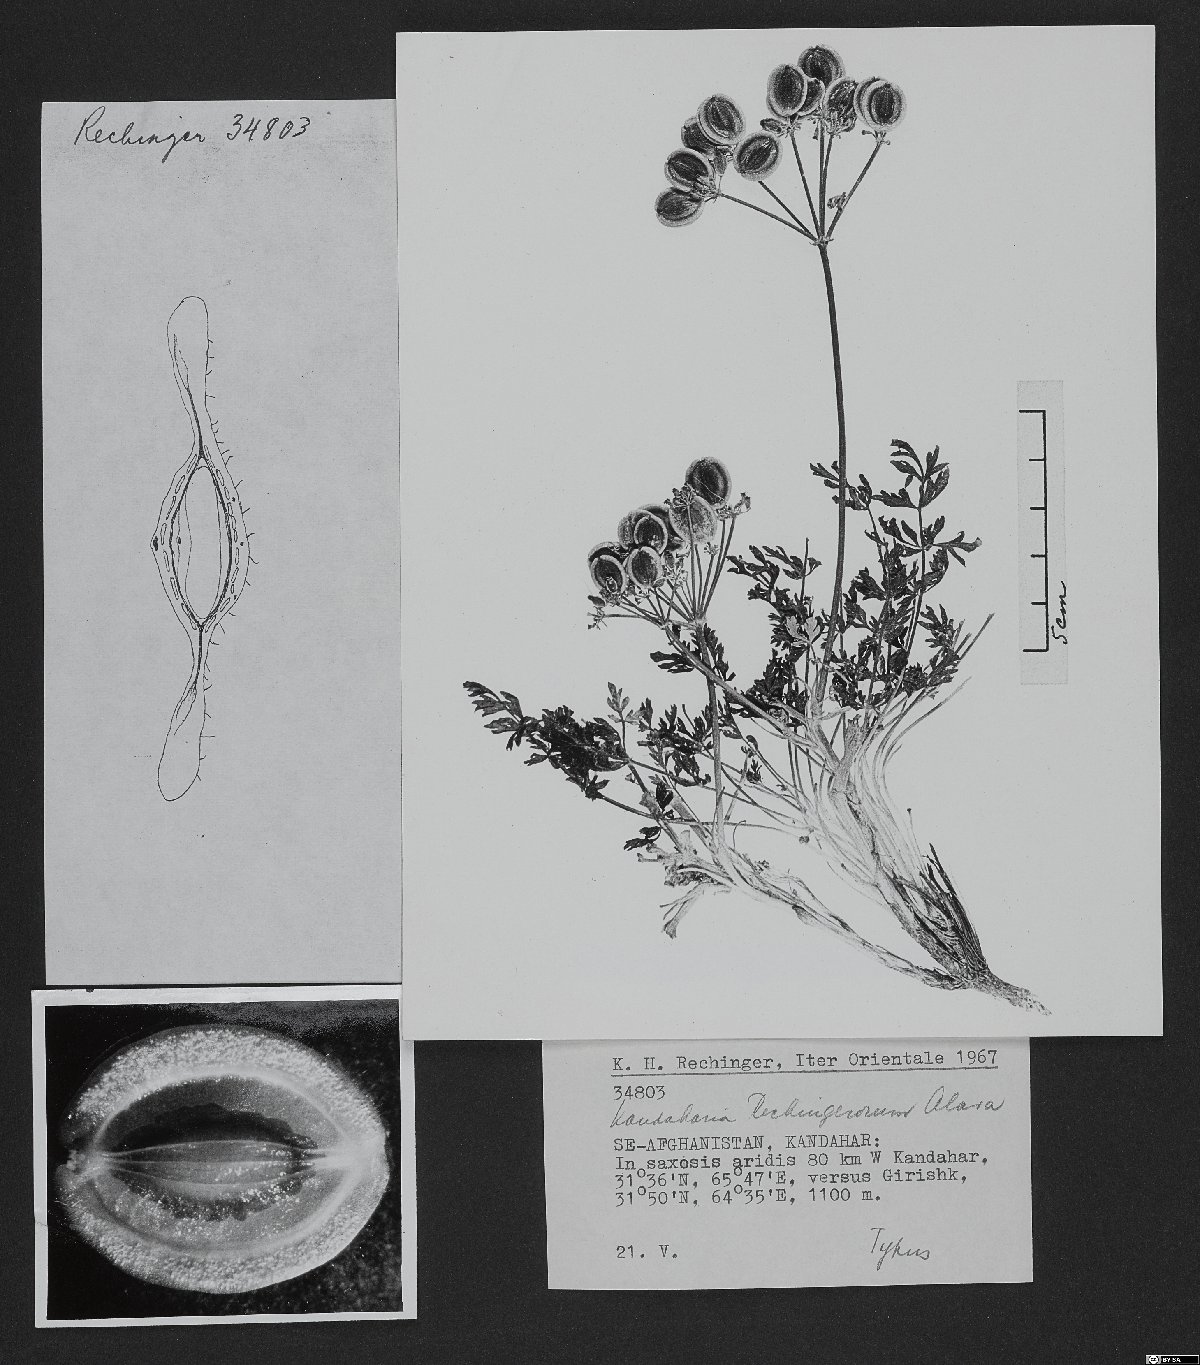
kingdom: Plantae
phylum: Tracheophyta
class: Magnoliopsida
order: Lamiales
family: Acanthaceae
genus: Justicia
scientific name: Justicia ladanoides
